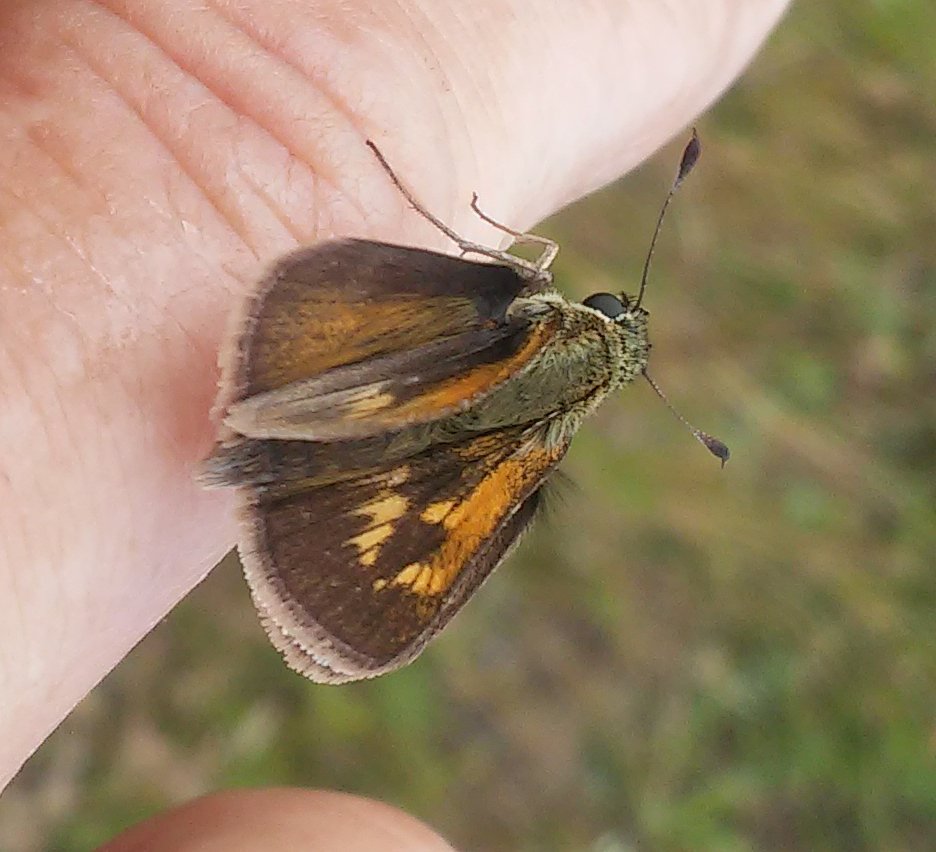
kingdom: Animalia
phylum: Arthropoda
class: Insecta
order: Lepidoptera
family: Hesperiidae
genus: Polites
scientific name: Polites themistocles
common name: Tawny-edged Skipper
